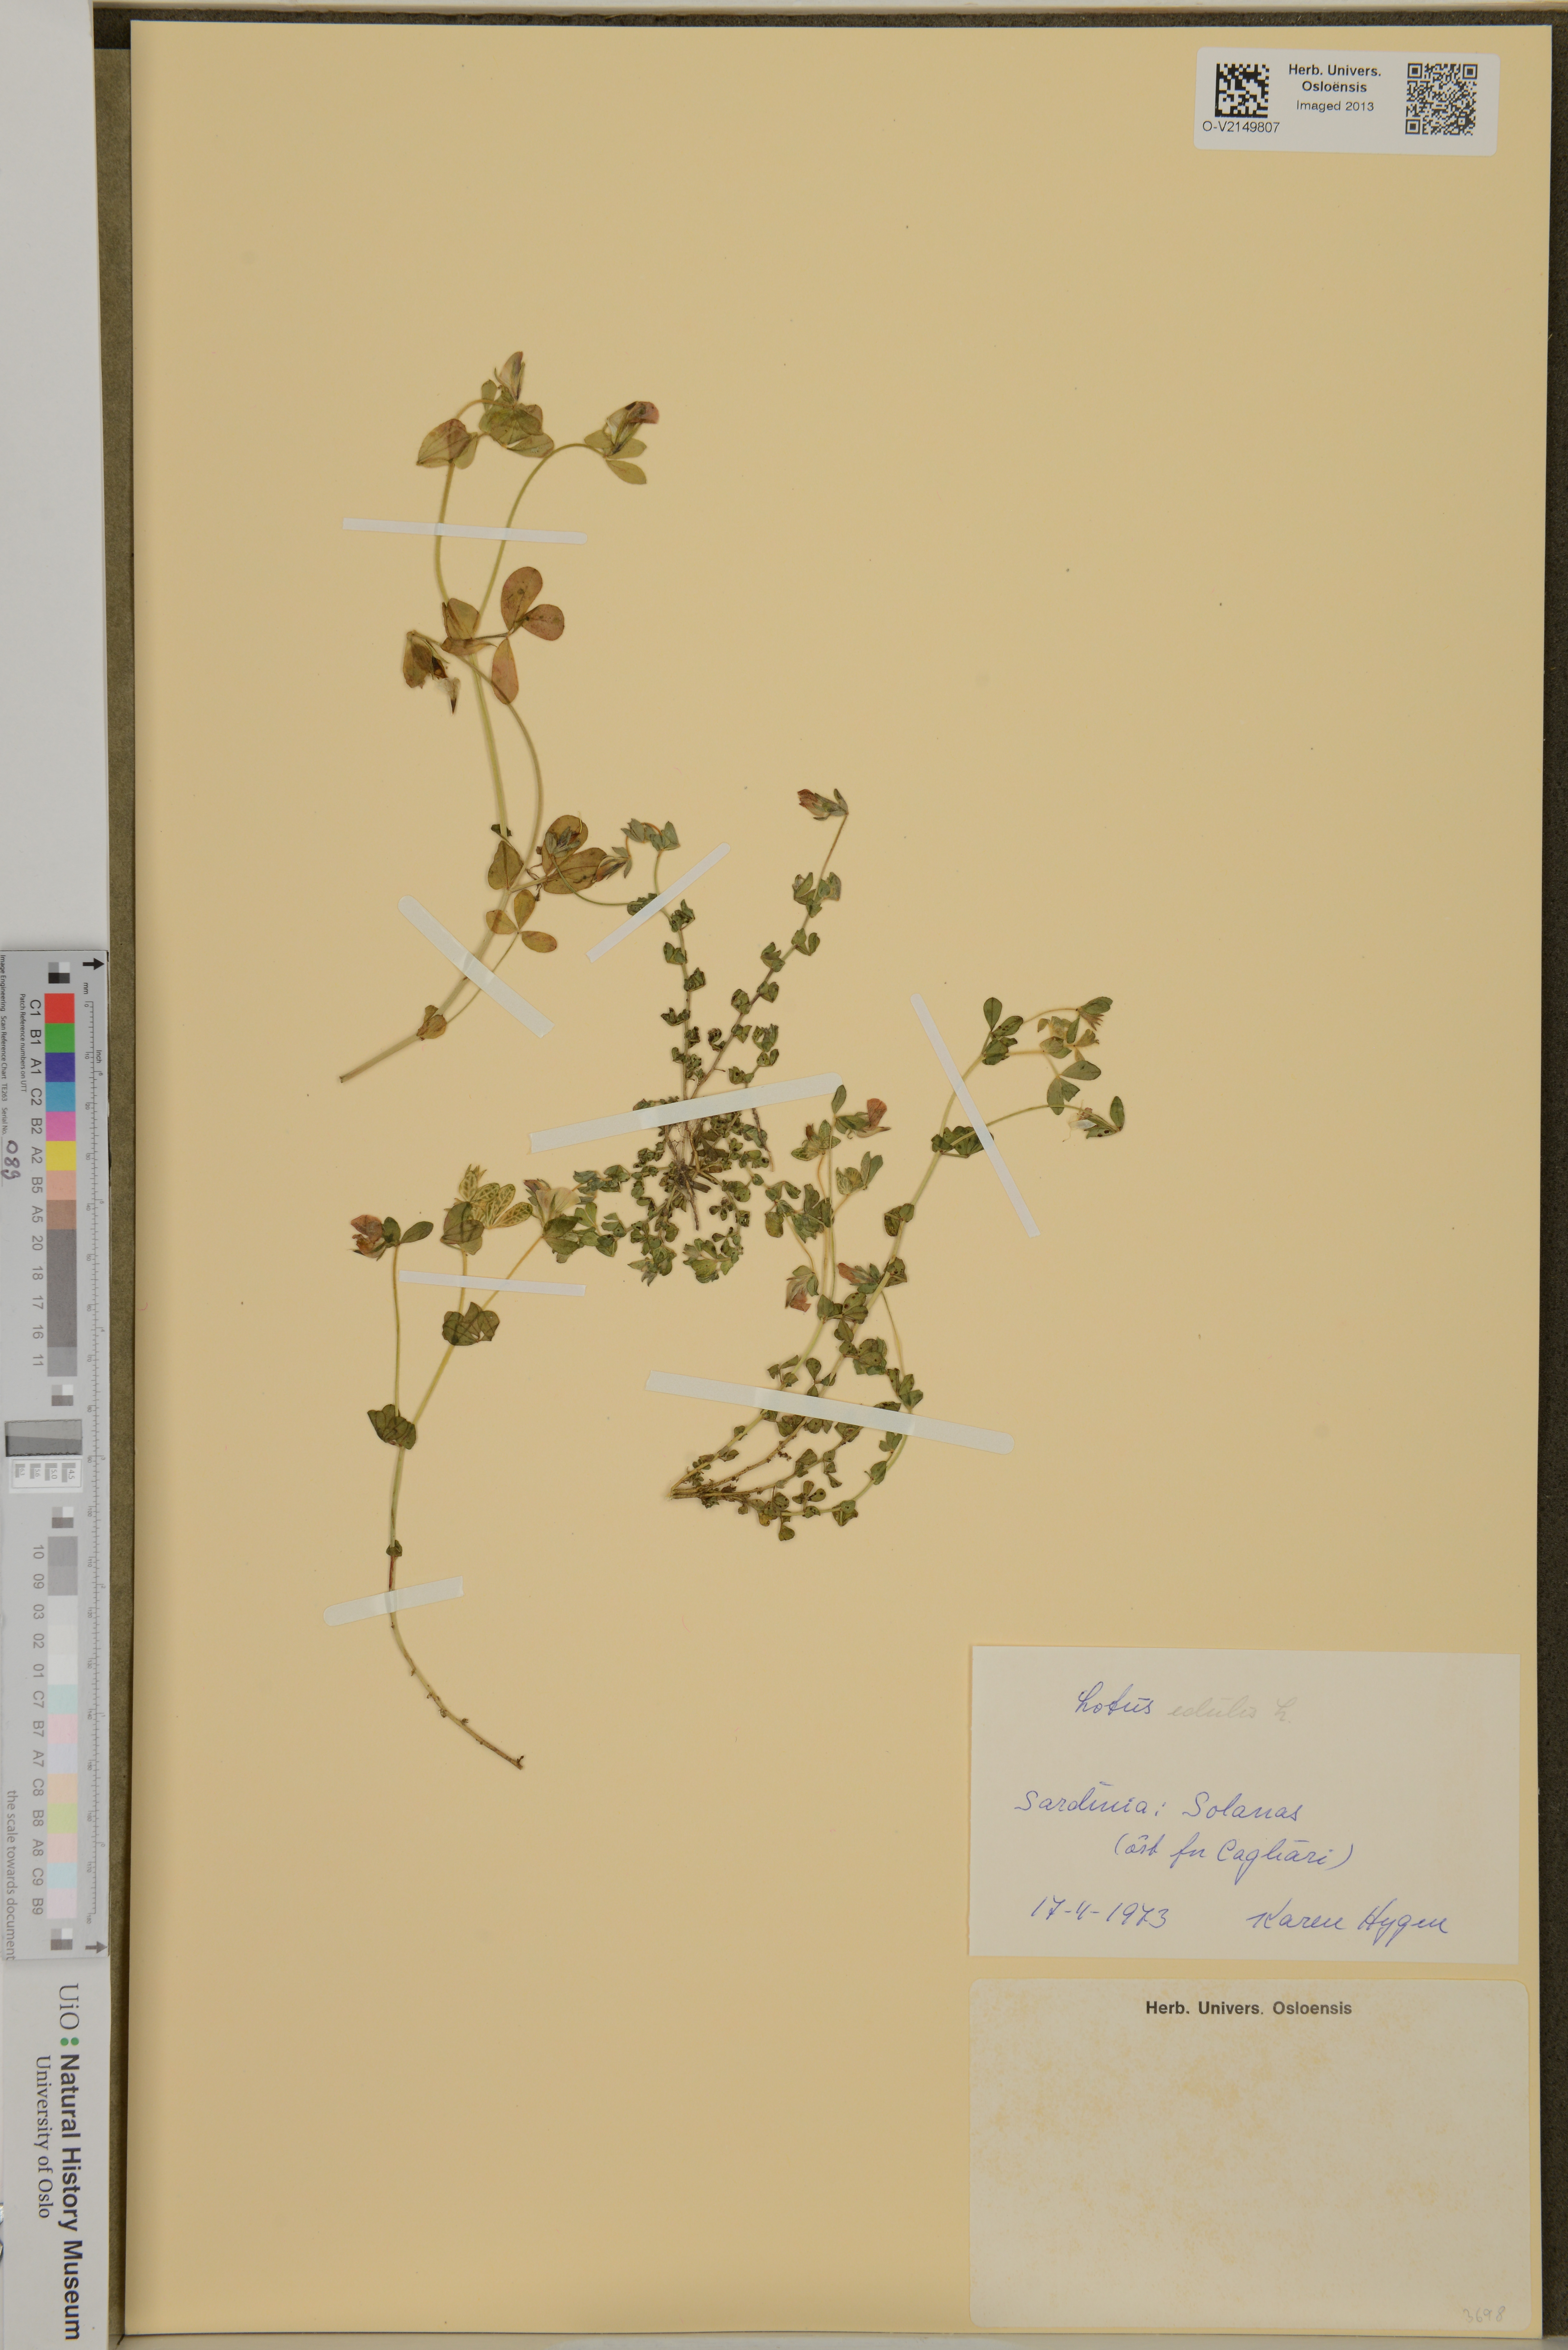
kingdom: Plantae
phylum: Tracheophyta
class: Magnoliopsida
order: Fabales
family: Fabaceae
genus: Lotus
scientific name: Lotus edulis
